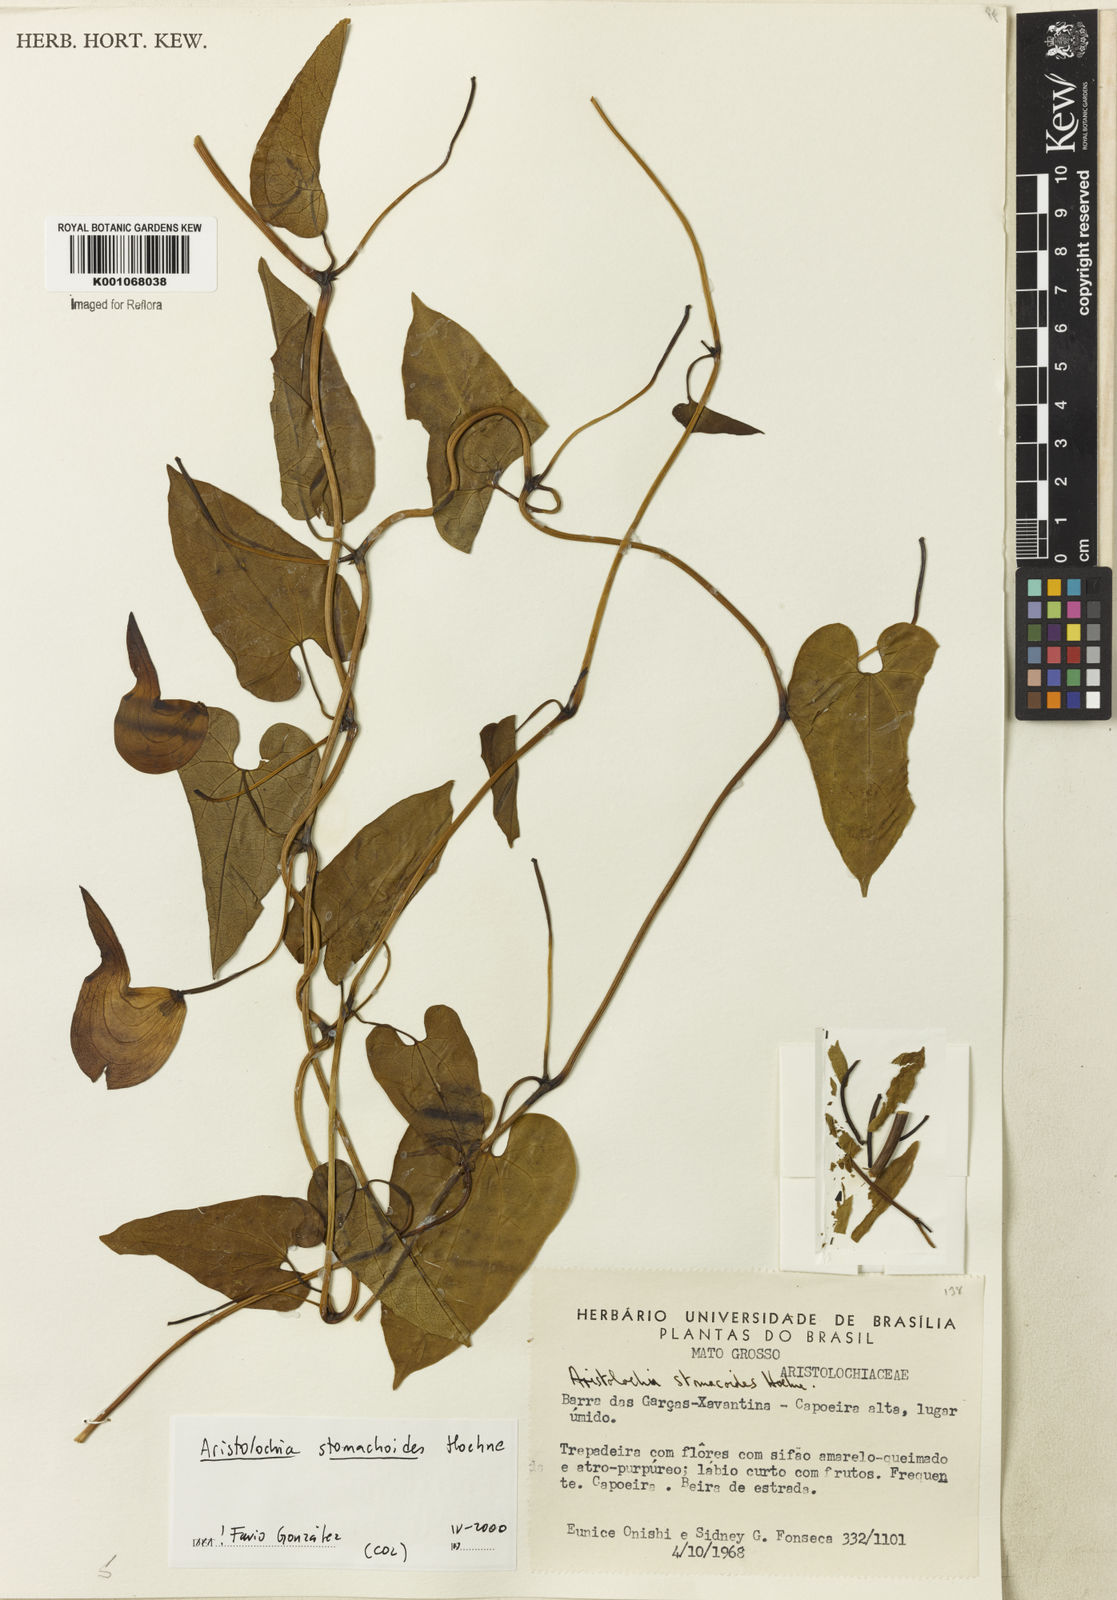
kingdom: Plantae
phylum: Tracheophyta
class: Magnoliopsida
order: Piperales
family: Aristolochiaceae
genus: Aristolochia
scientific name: Aristolochia
